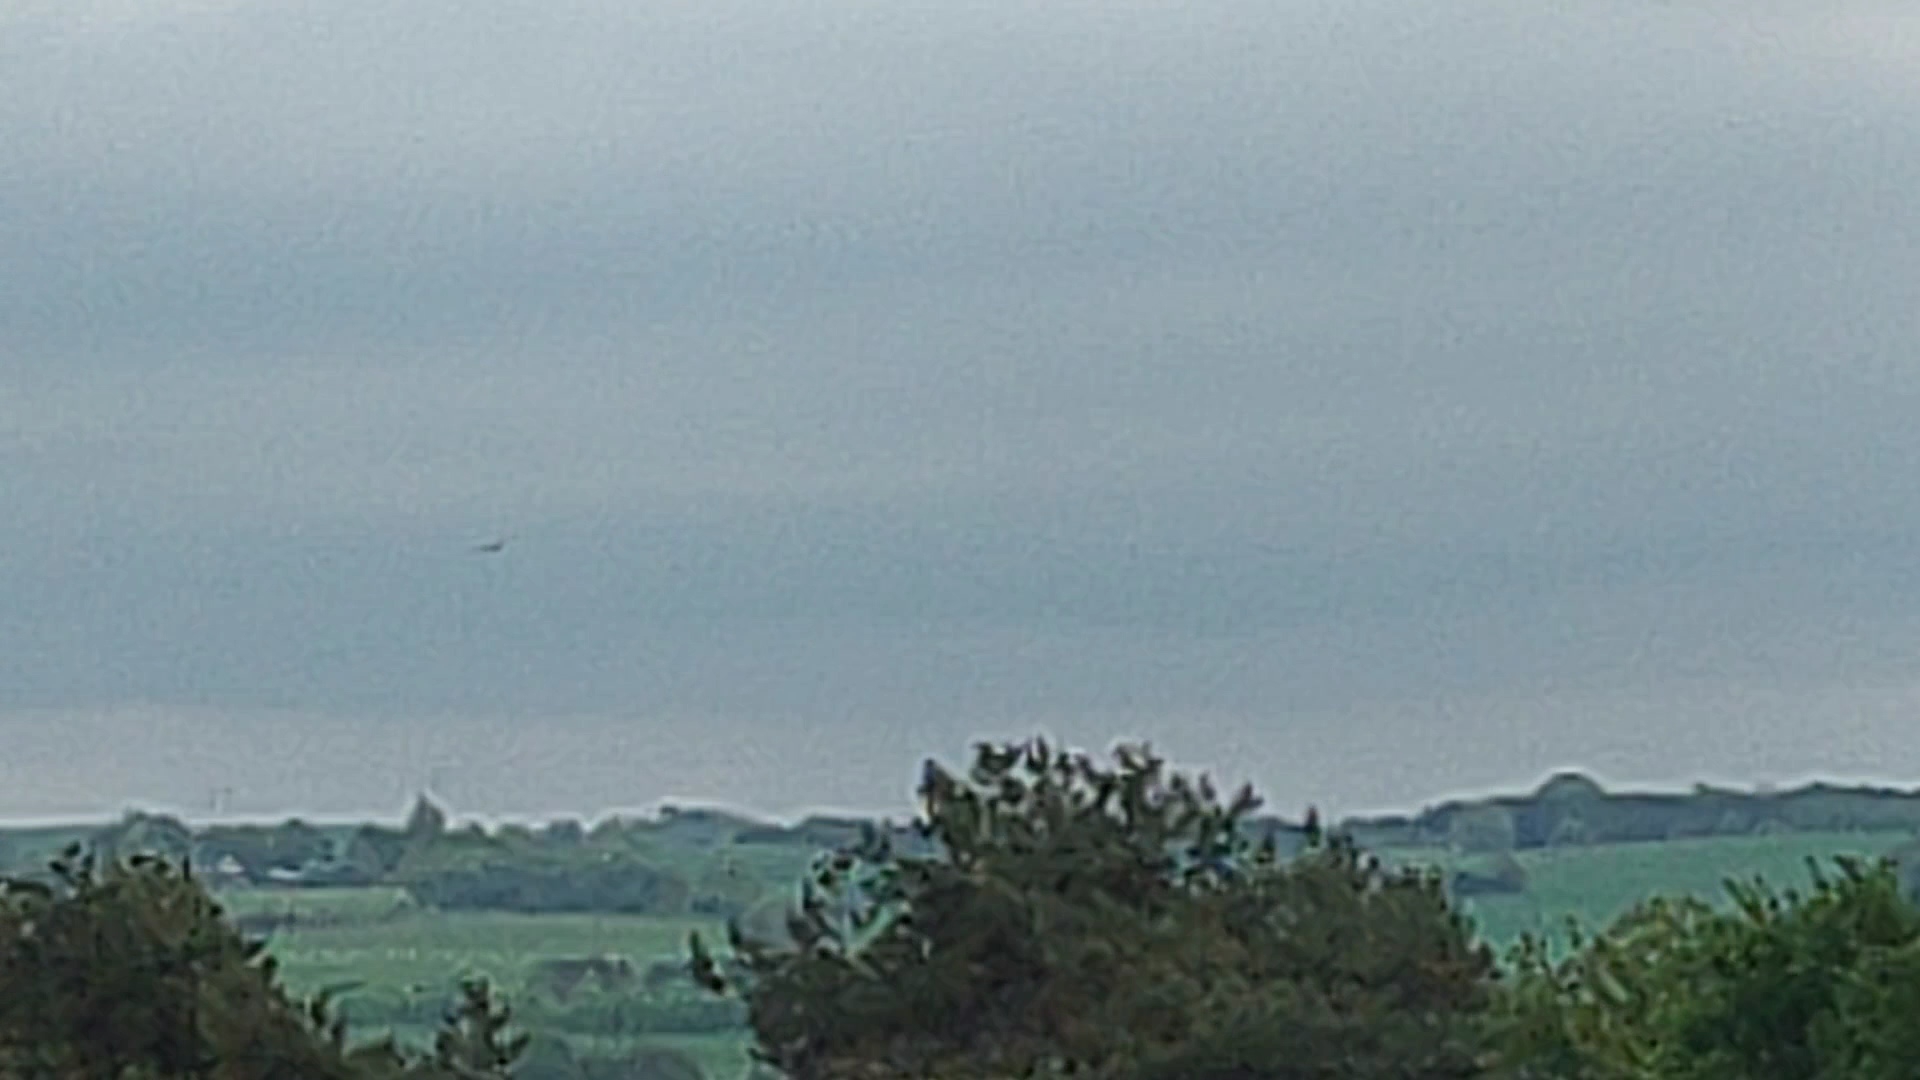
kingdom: Animalia
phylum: Chordata
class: Aves
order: Accipitriformes
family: Accipitridae
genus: Circus
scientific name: Circus aeruginosus
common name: Rørhøg
